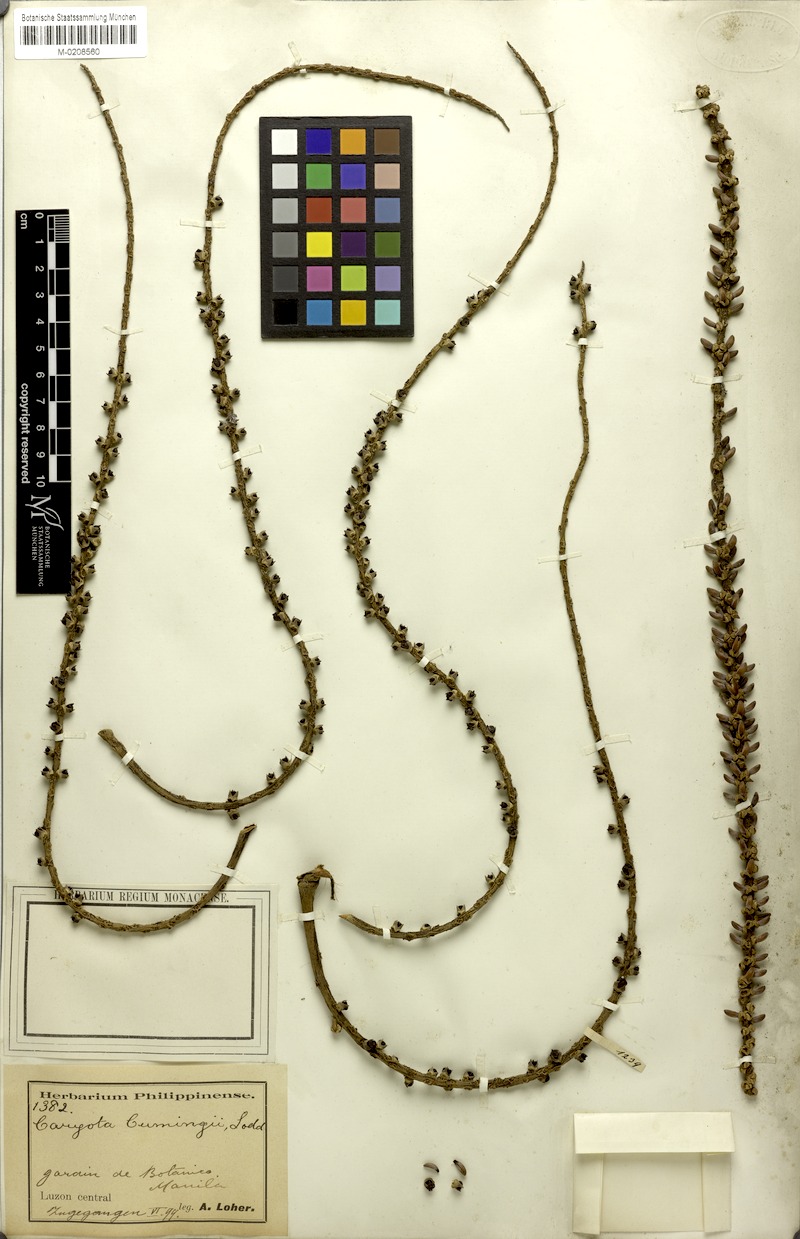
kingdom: Plantae
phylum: Tracheophyta
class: Liliopsida
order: Arecales
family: Arecaceae
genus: Caryota
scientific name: Caryota cumingii
